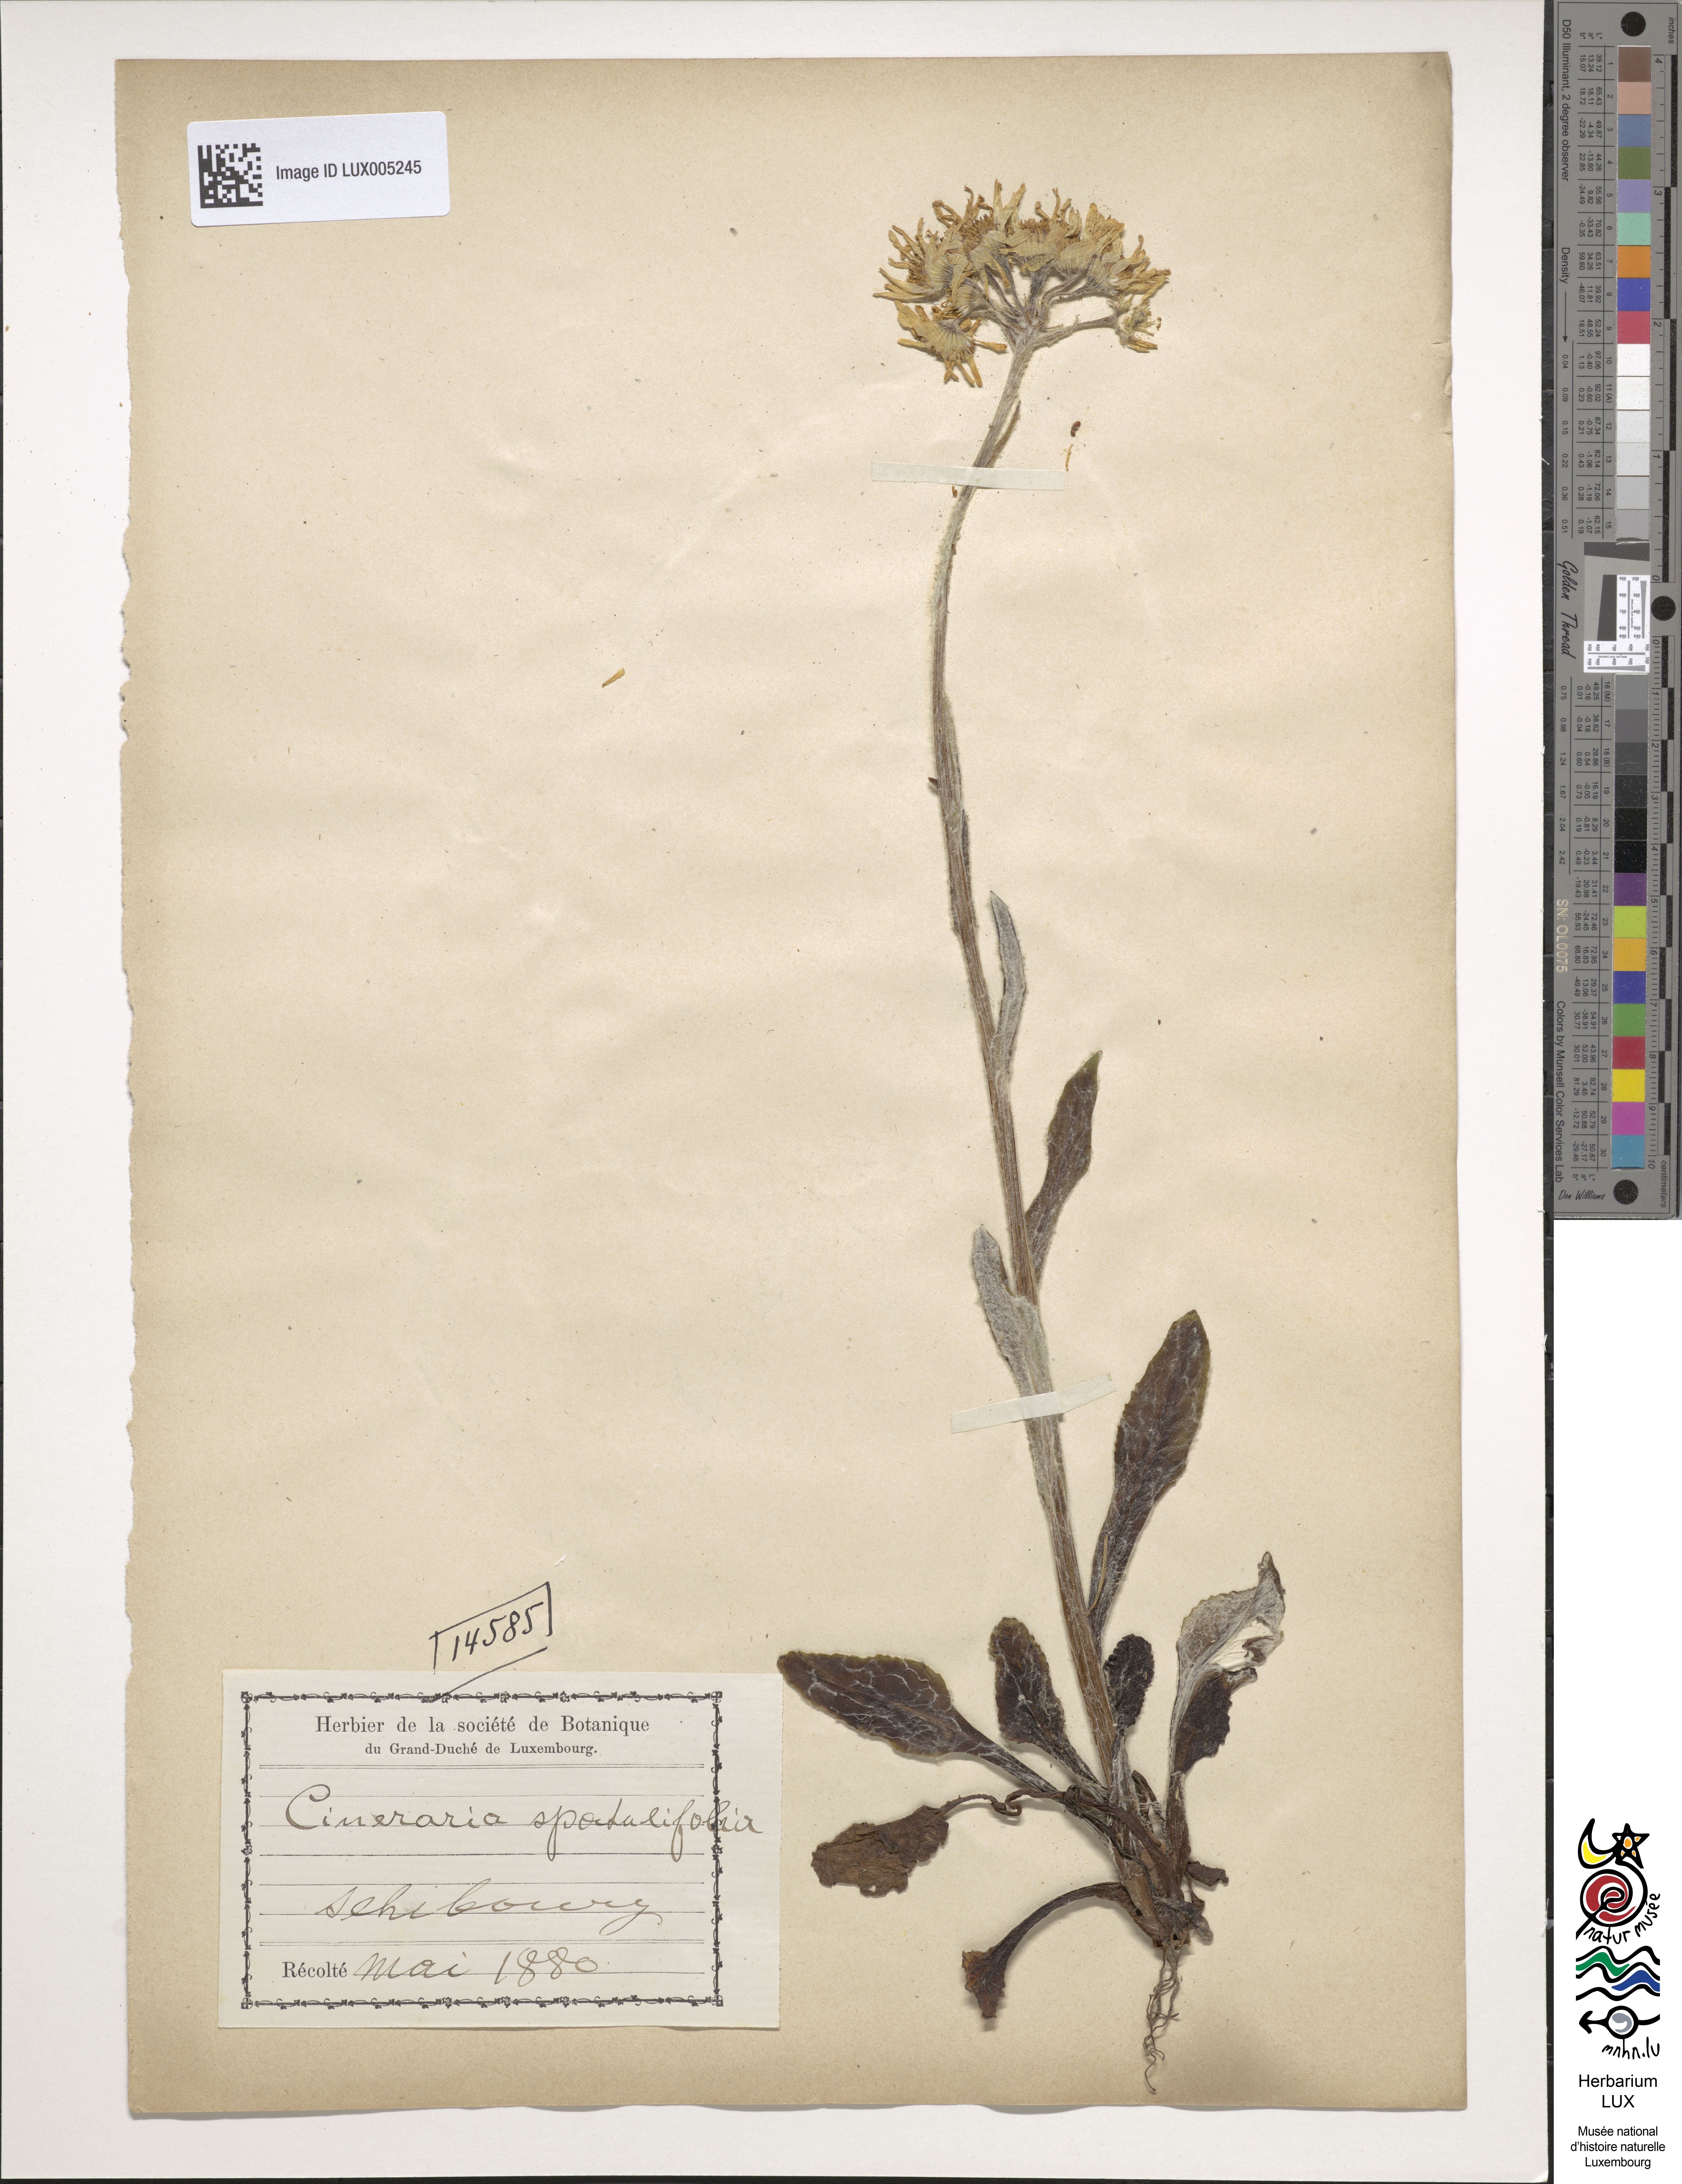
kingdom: Plantae
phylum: Tracheophyta
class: Magnoliopsida
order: Asterales
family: Asteraceae
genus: Tephroseris
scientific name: Tephroseris helenitis
